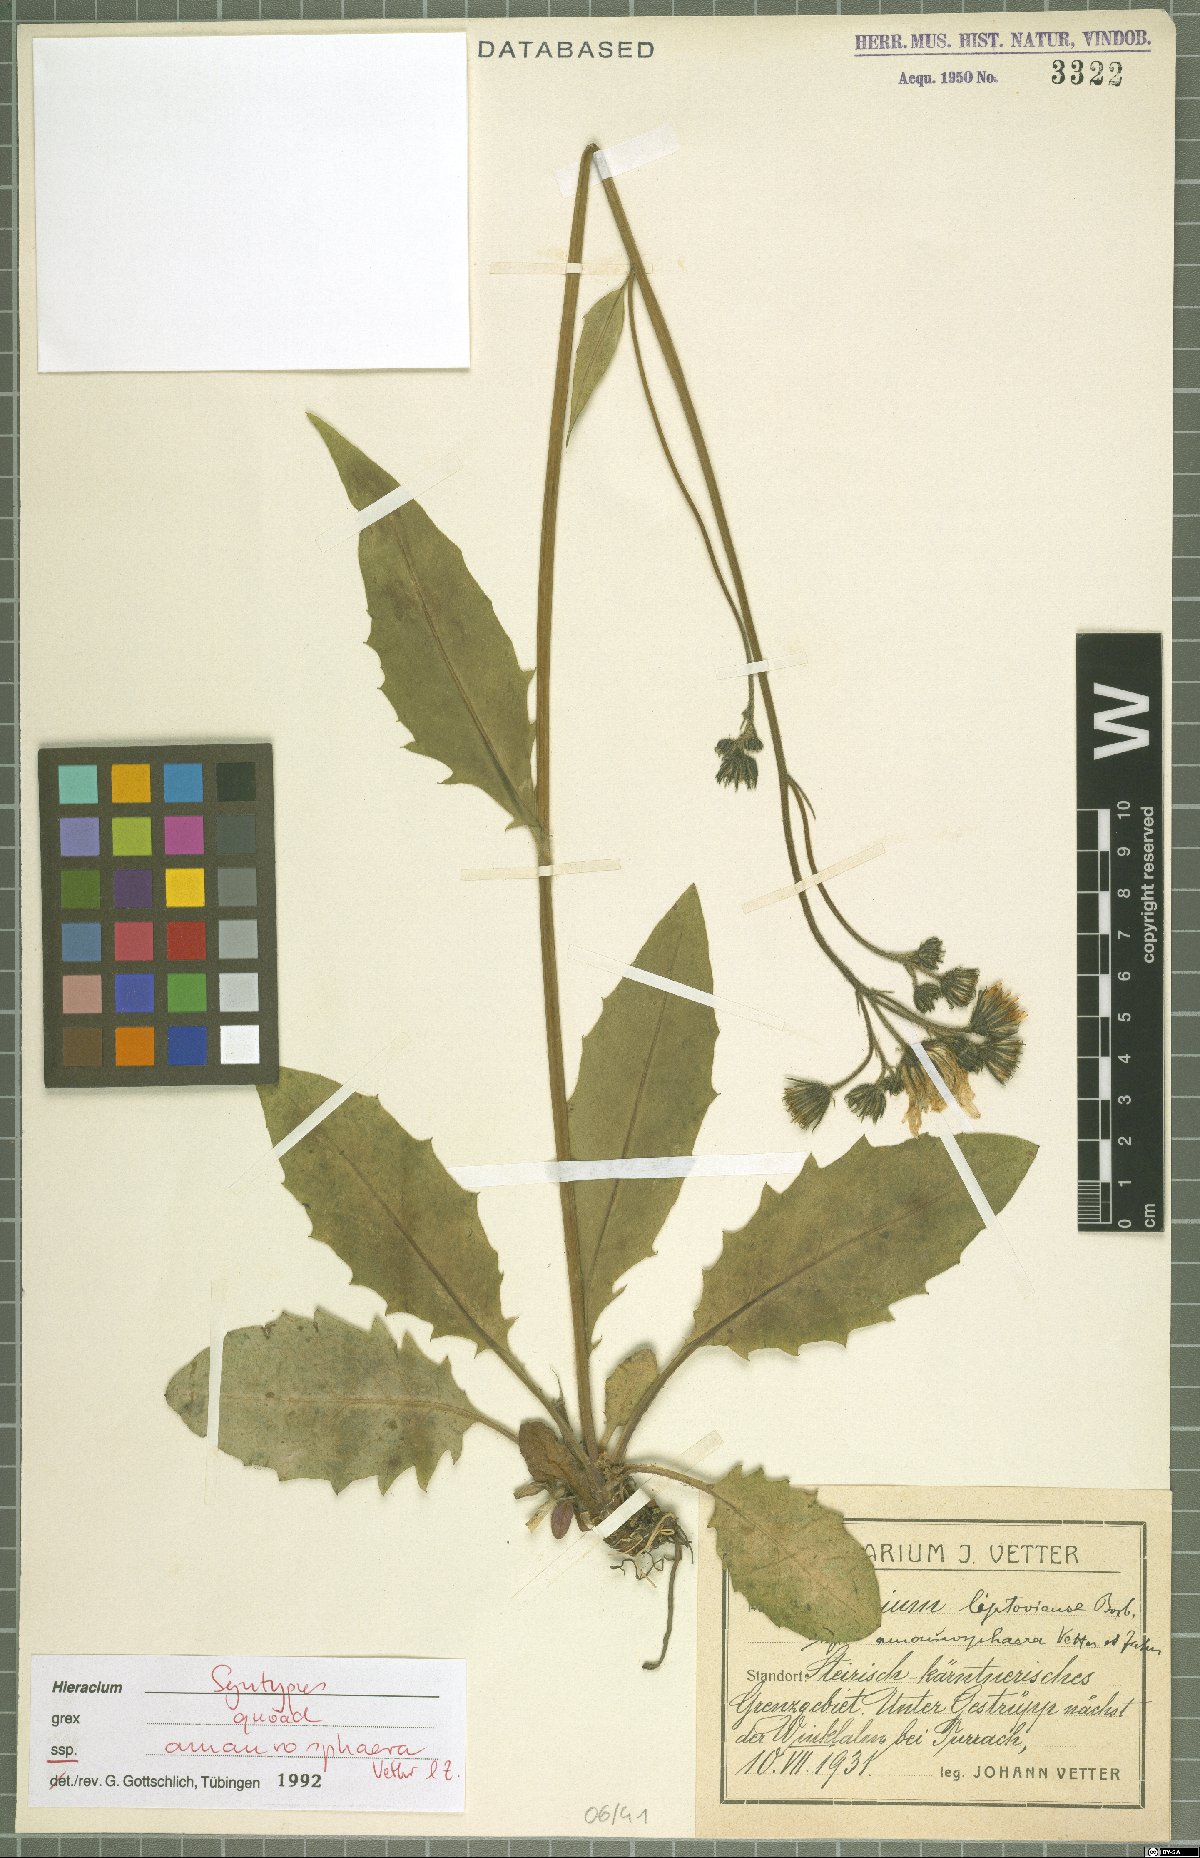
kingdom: Plantae
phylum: Tracheophyta
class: Magnoliopsida
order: Asterales
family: Asteraceae
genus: Hieracium
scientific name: Hieracium liptoviense
